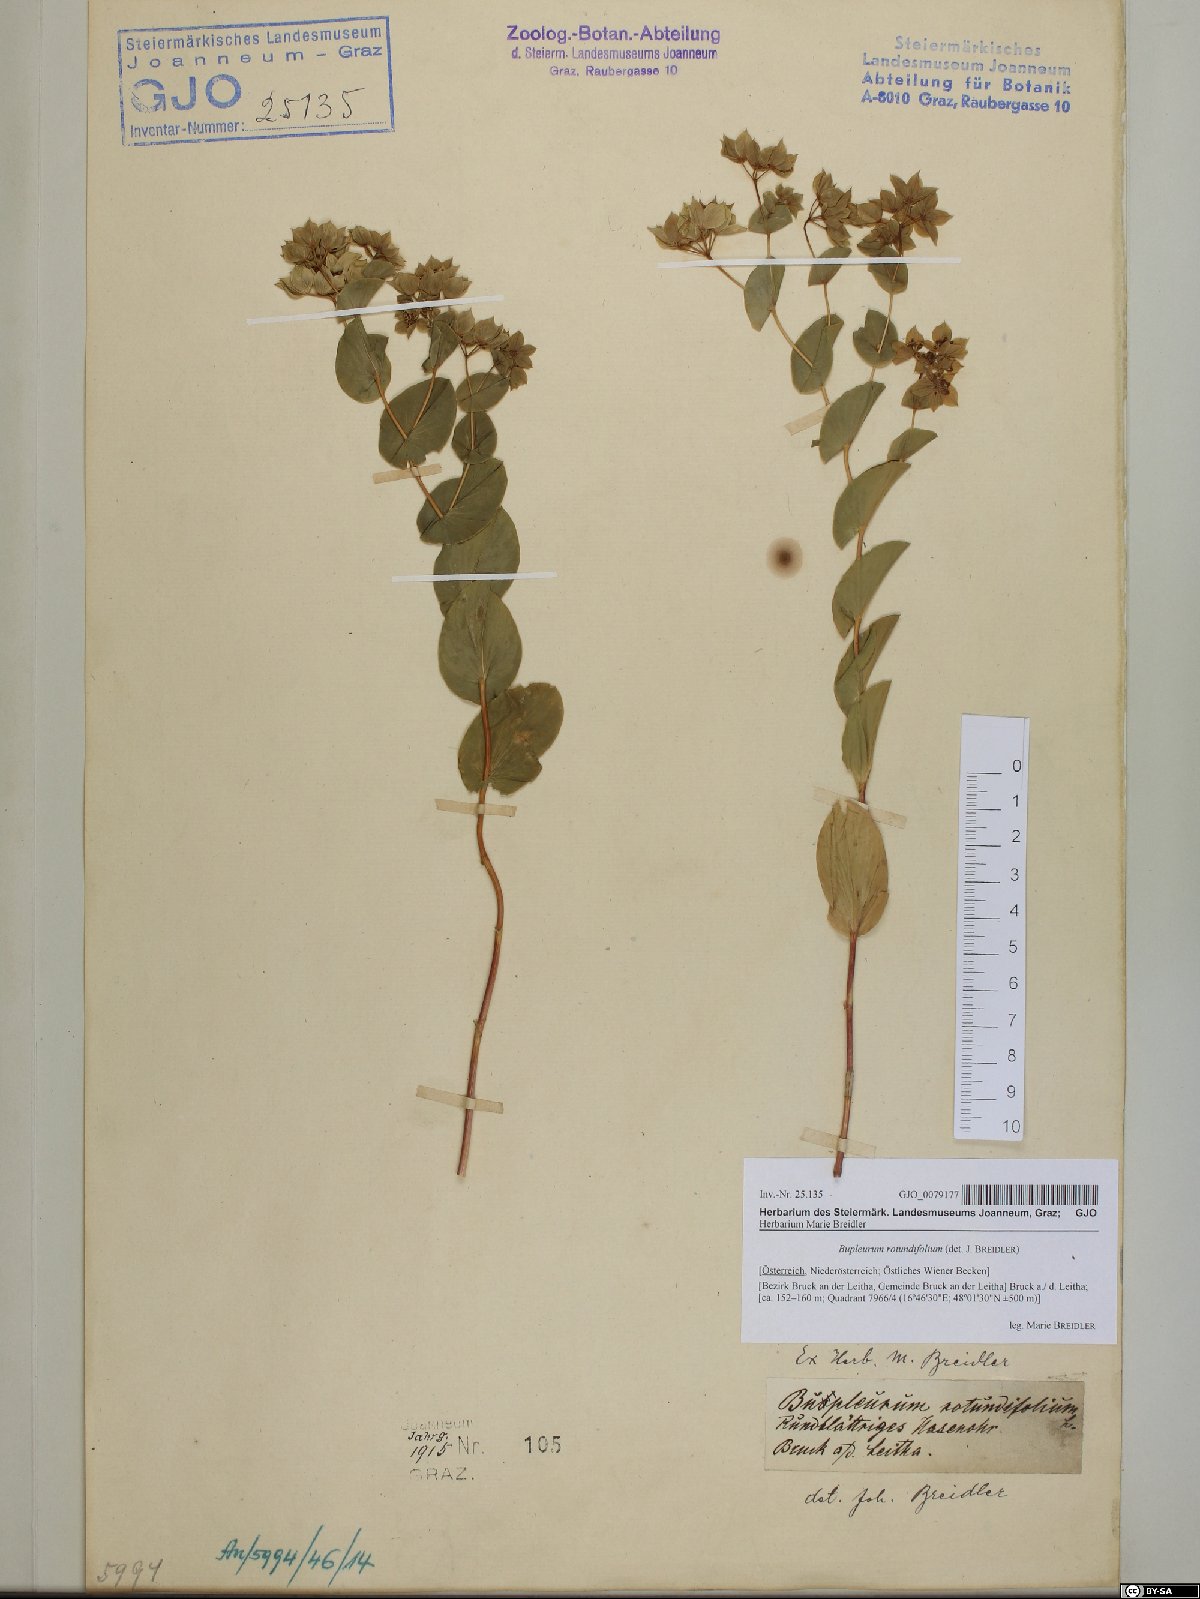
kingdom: Plantae
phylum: Tracheophyta
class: Magnoliopsida
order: Apiales
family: Apiaceae
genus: Bupleurum
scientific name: Bupleurum rotundifolium
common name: Thorow-wax
